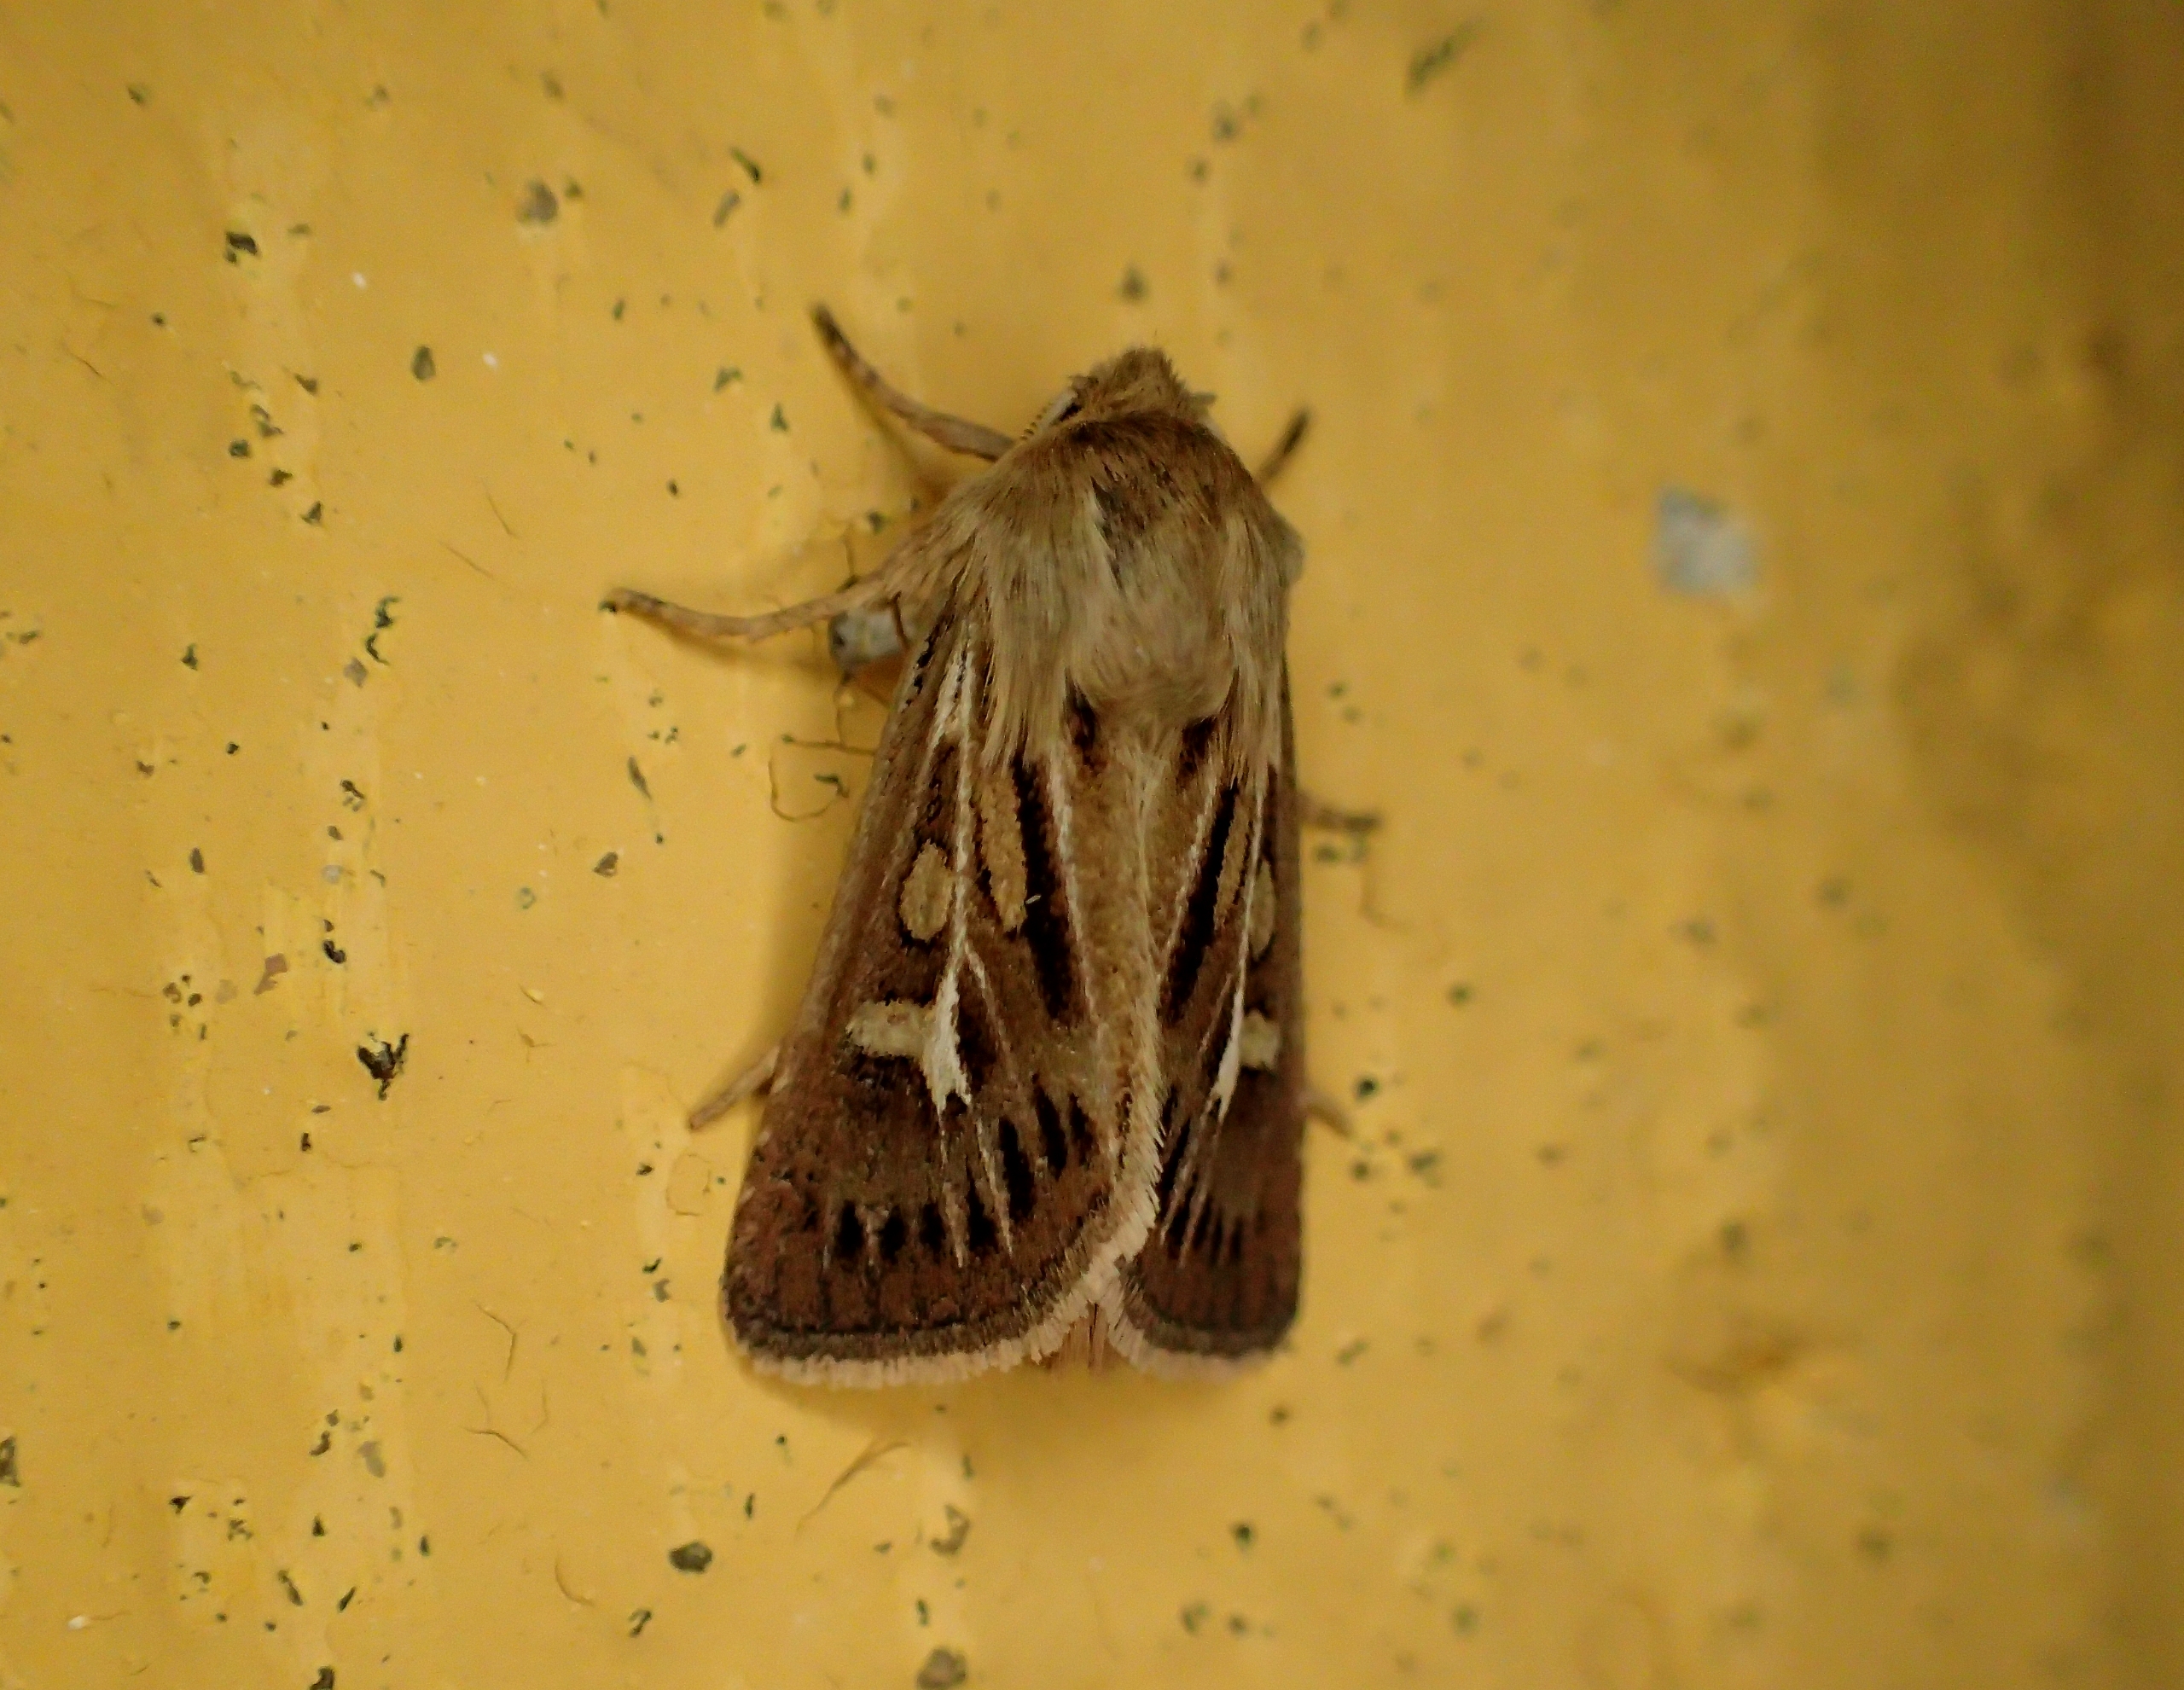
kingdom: Animalia
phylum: Arthropoda
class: Insecta
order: Lepidoptera
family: Noctuidae
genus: Cerapteryx
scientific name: Cerapteryx graminis
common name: Mosebunkeugle
